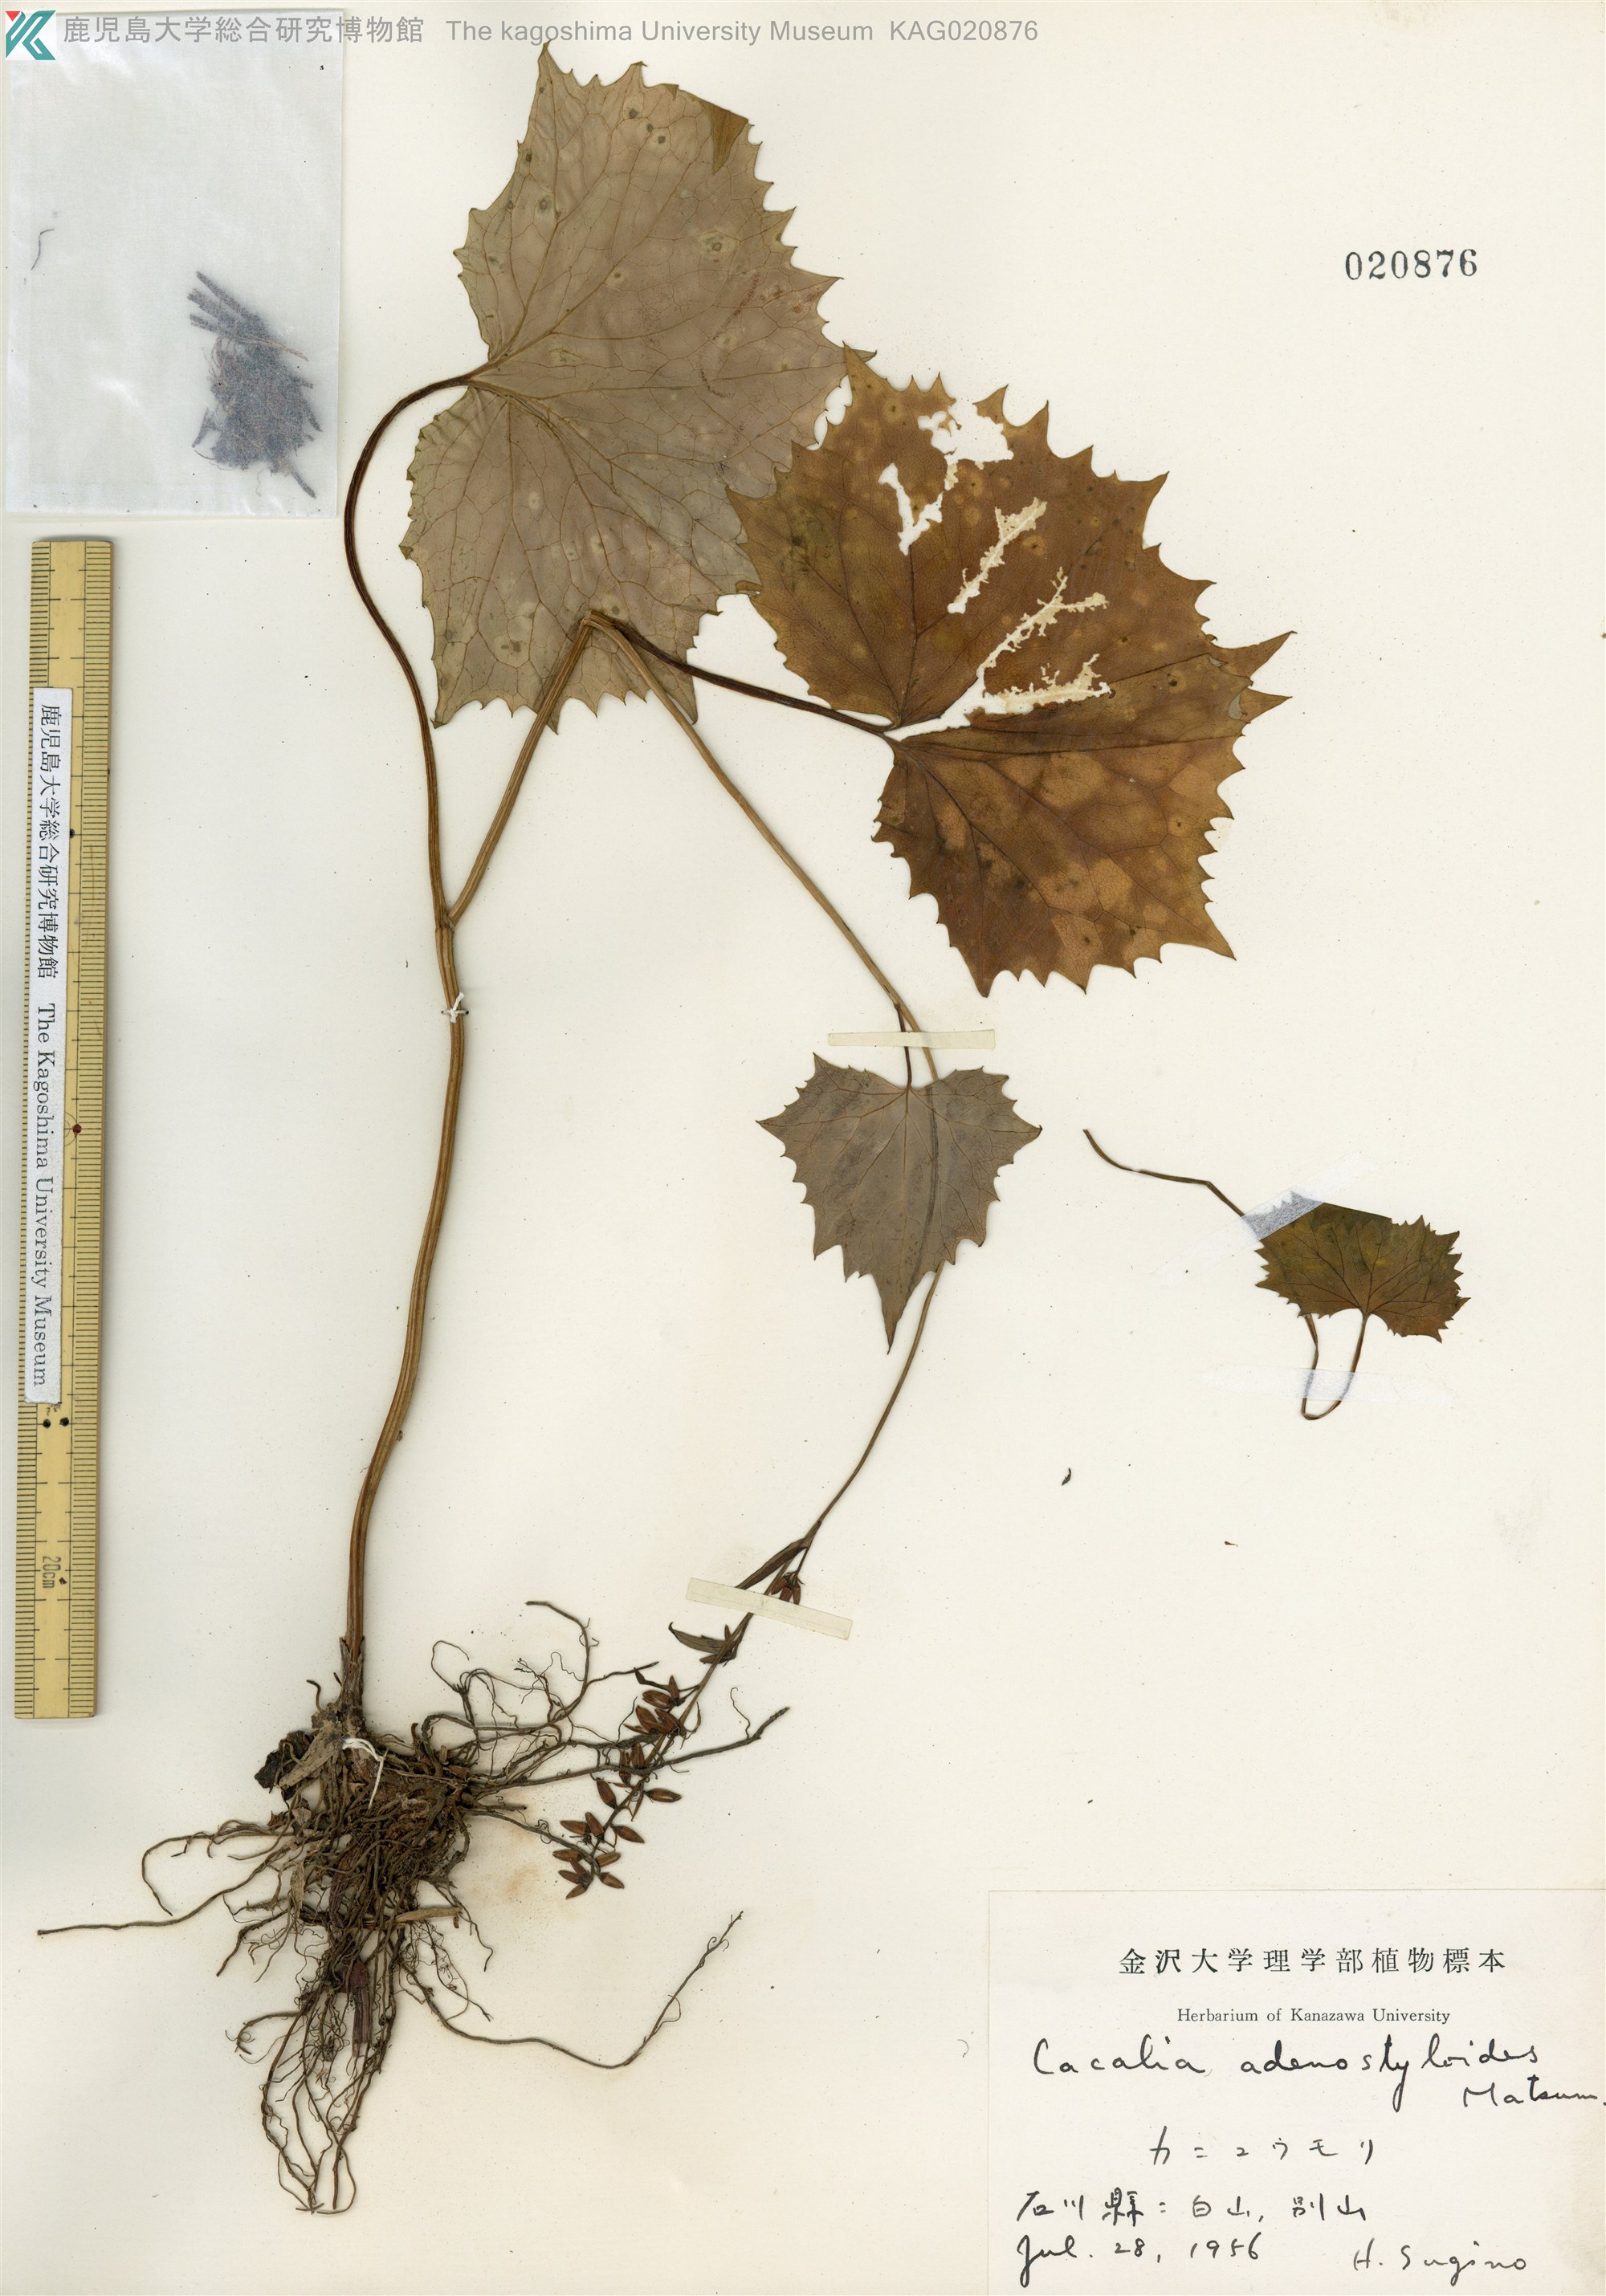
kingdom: Plantae
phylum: Tracheophyta
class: Magnoliopsida
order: Asterales
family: Asteraceae
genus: Parasenecio
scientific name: Parasenecio farfarifolius
